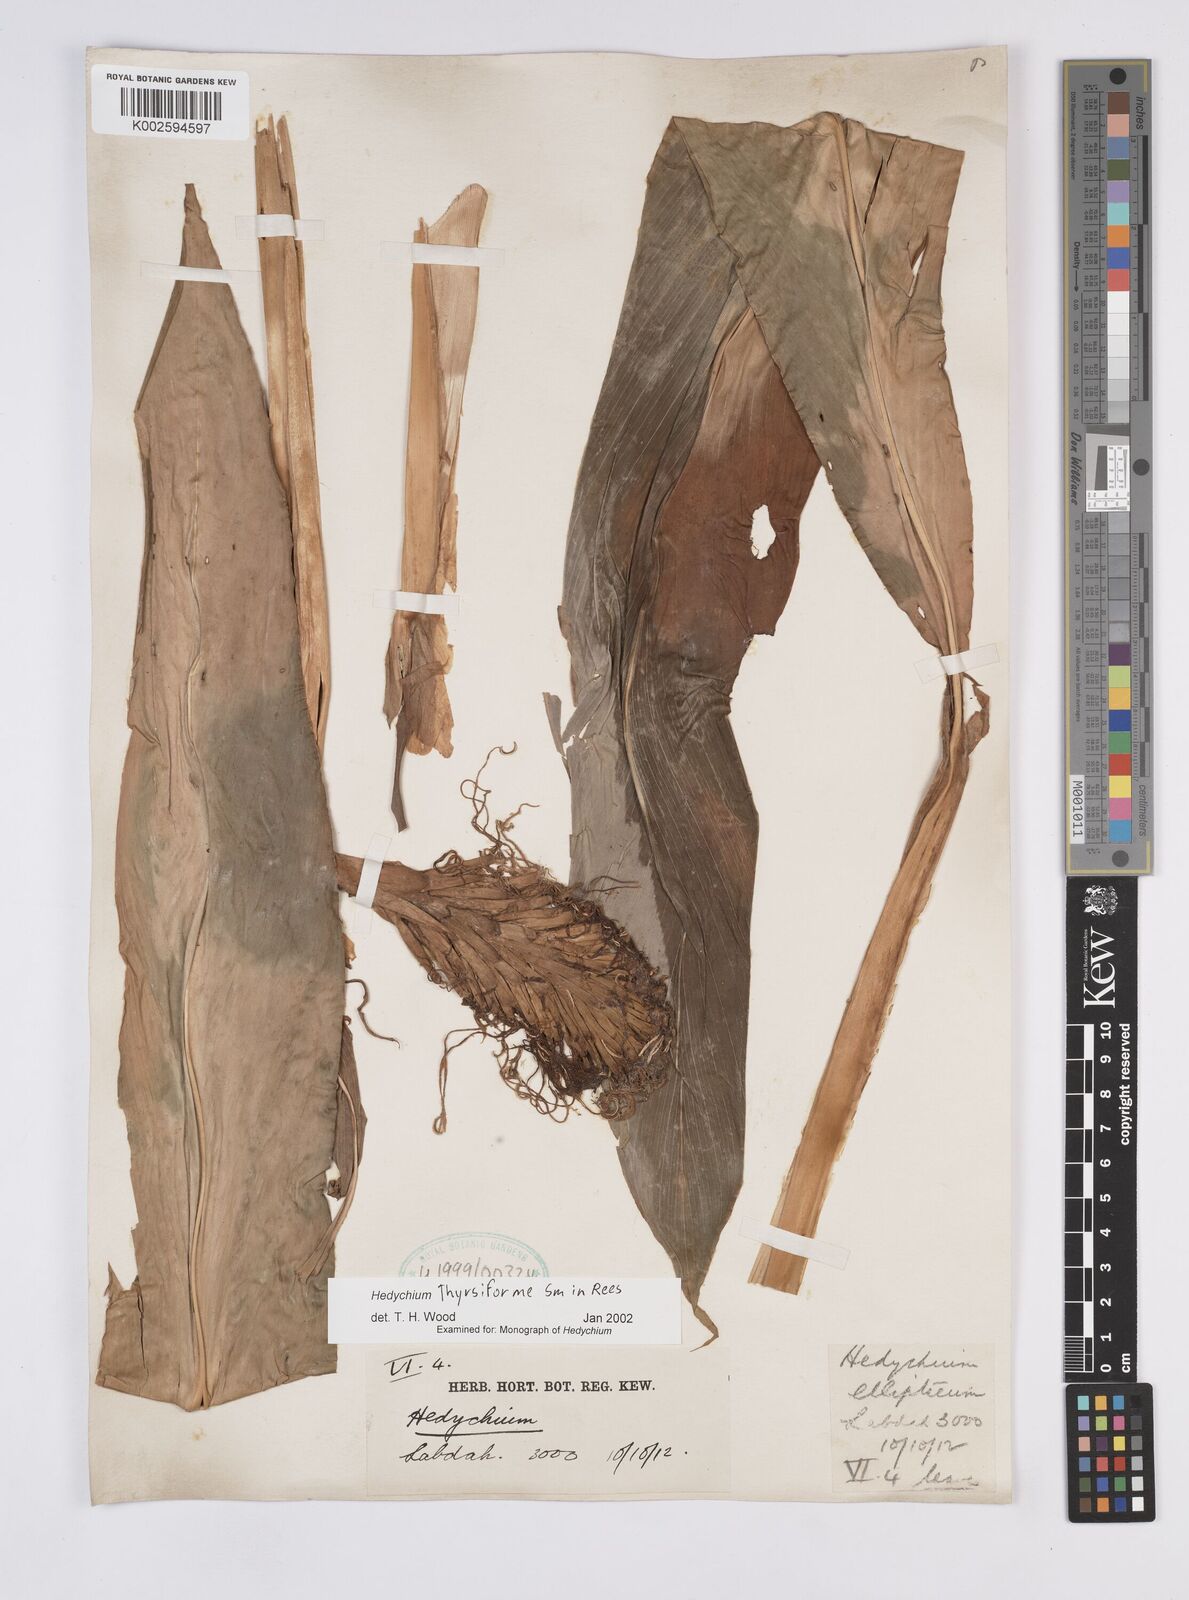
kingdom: Plantae
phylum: Tracheophyta
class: Liliopsida
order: Zingiberales
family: Zingiberaceae
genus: Hedychium
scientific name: Hedychium thyrsiforme
